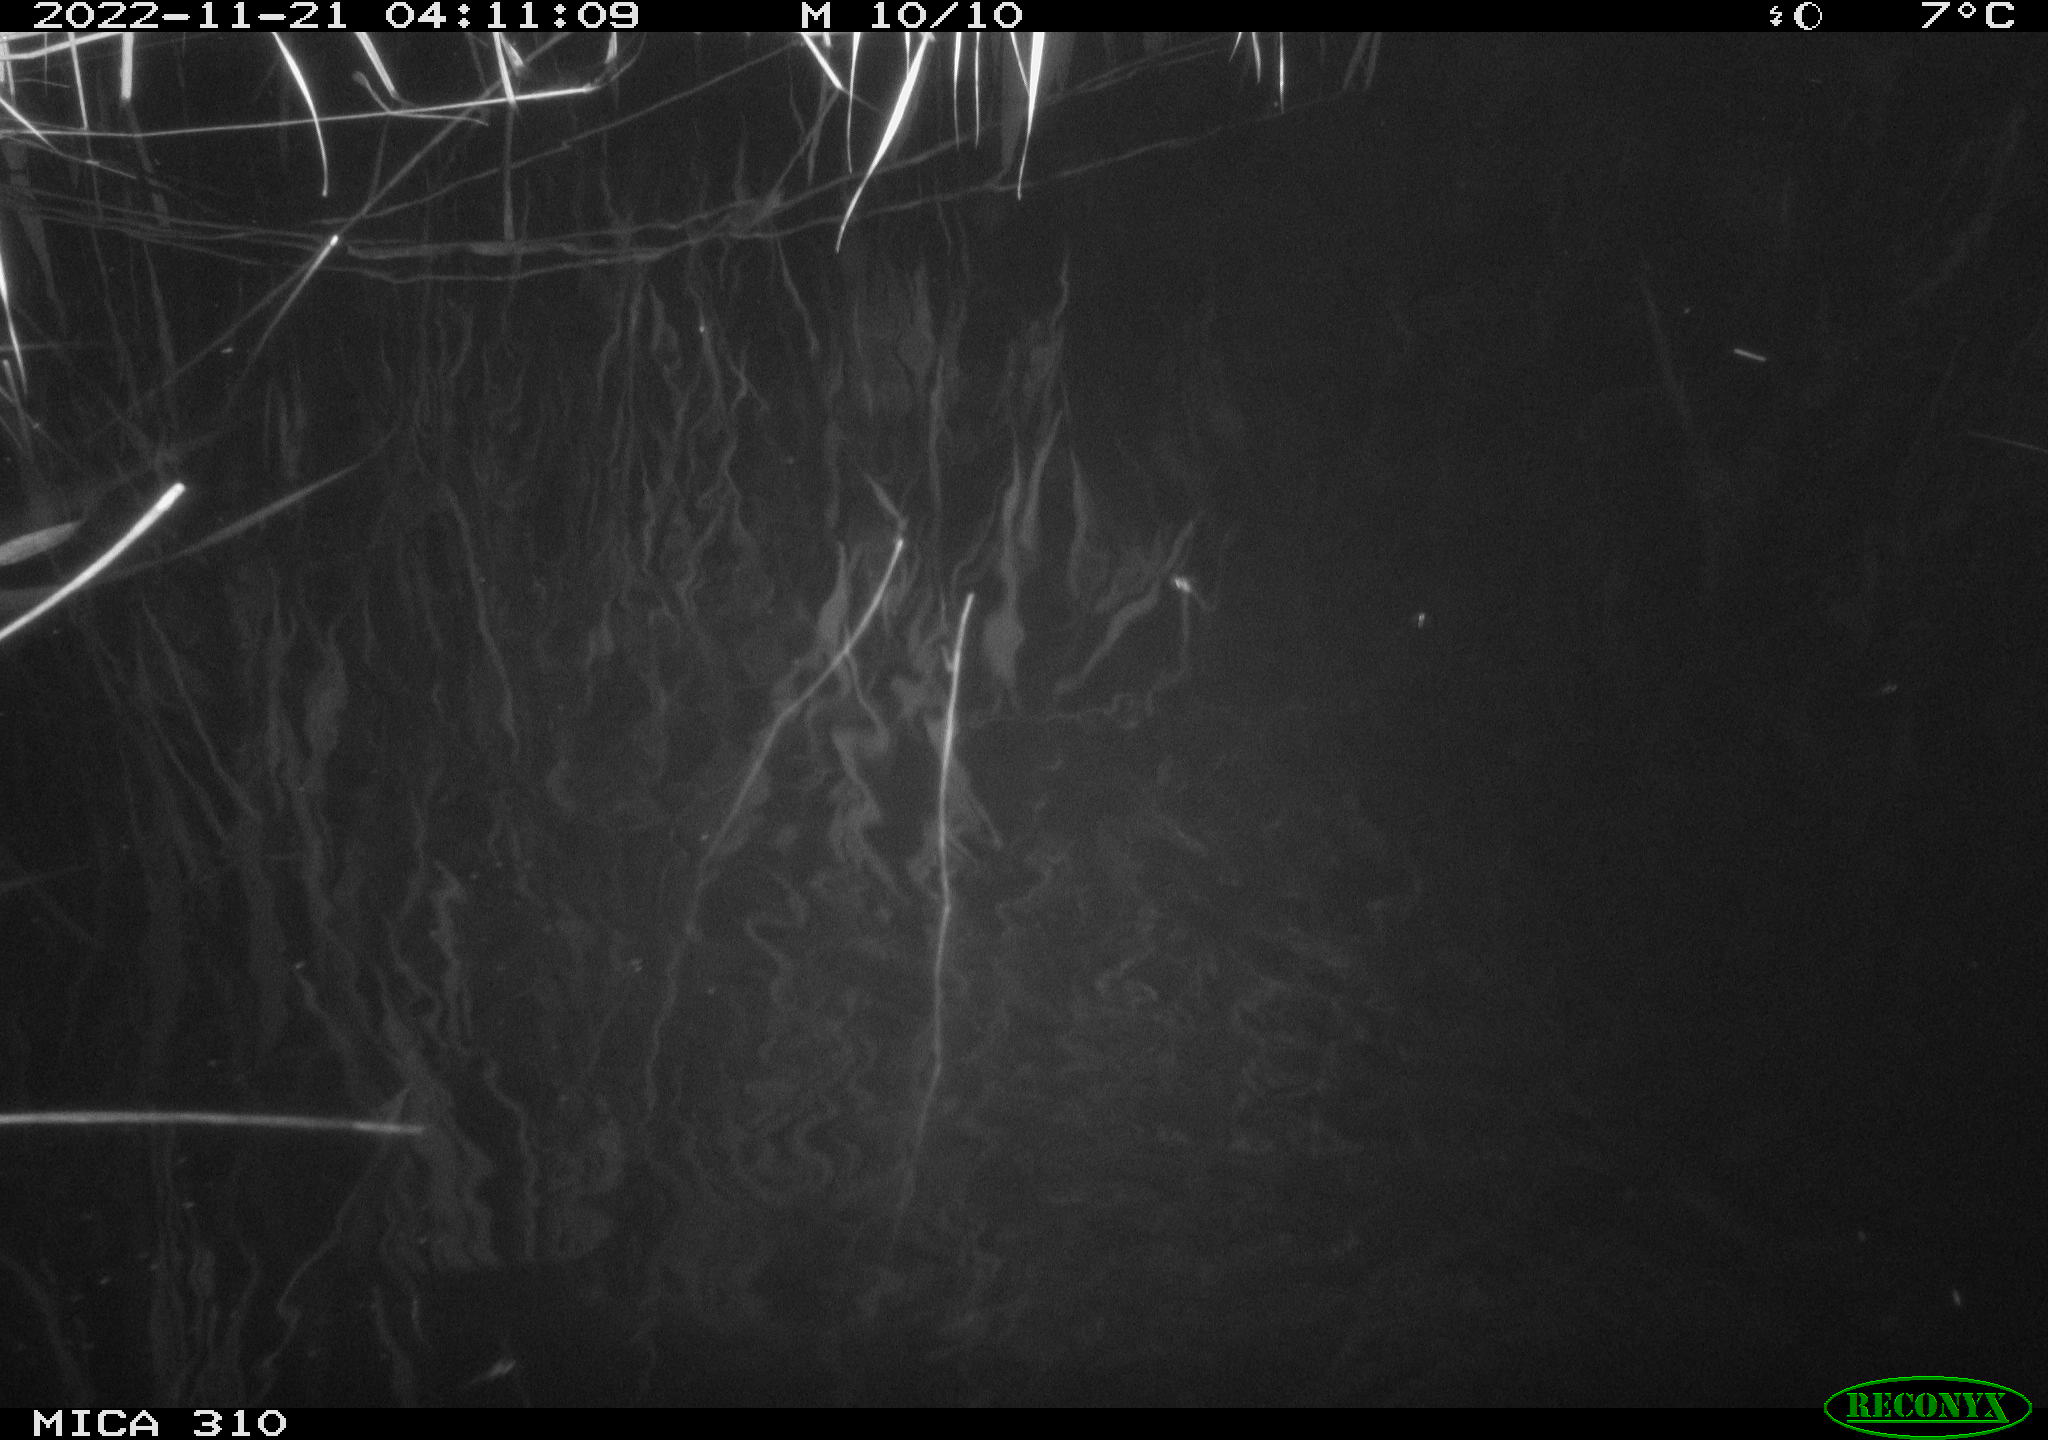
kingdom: Animalia
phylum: Chordata
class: Mammalia
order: Rodentia
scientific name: Rodentia
